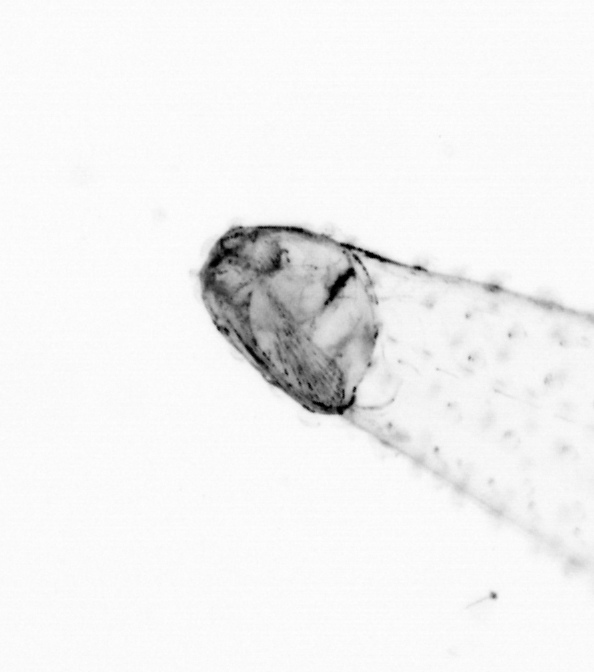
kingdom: Animalia
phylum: Chaetognatha
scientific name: Chaetognatha
